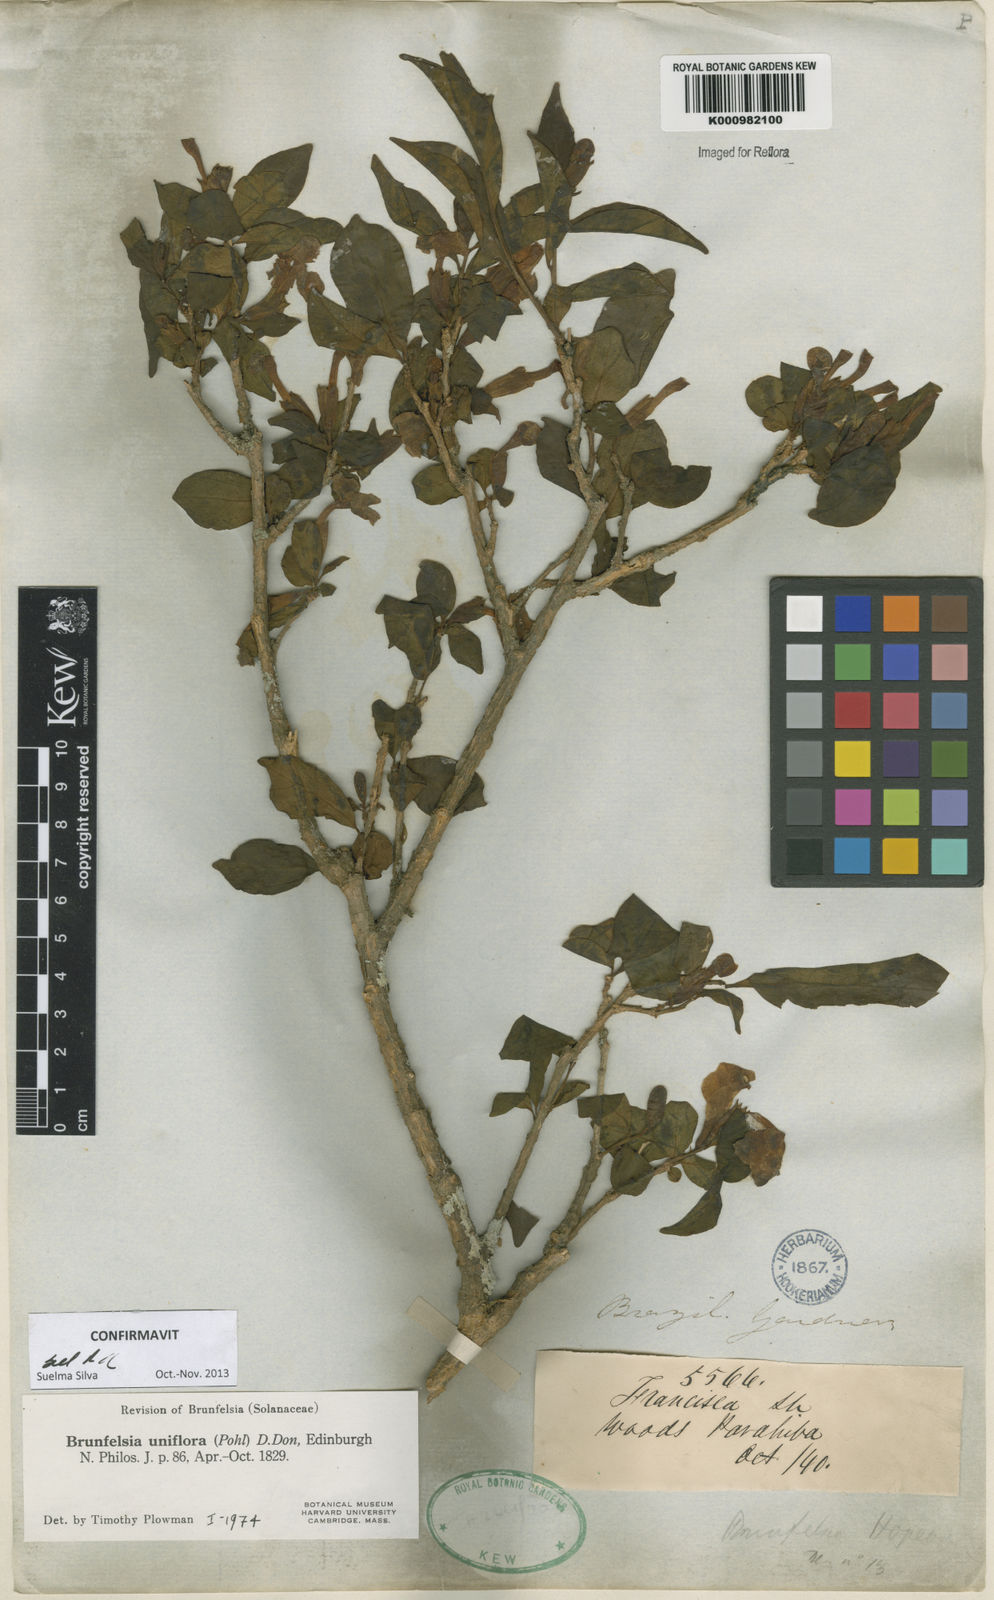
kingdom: Plantae
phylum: Tracheophyta
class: Magnoliopsida
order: Solanales
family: Solanaceae
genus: Brunfelsia
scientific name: Brunfelsia uniflora
